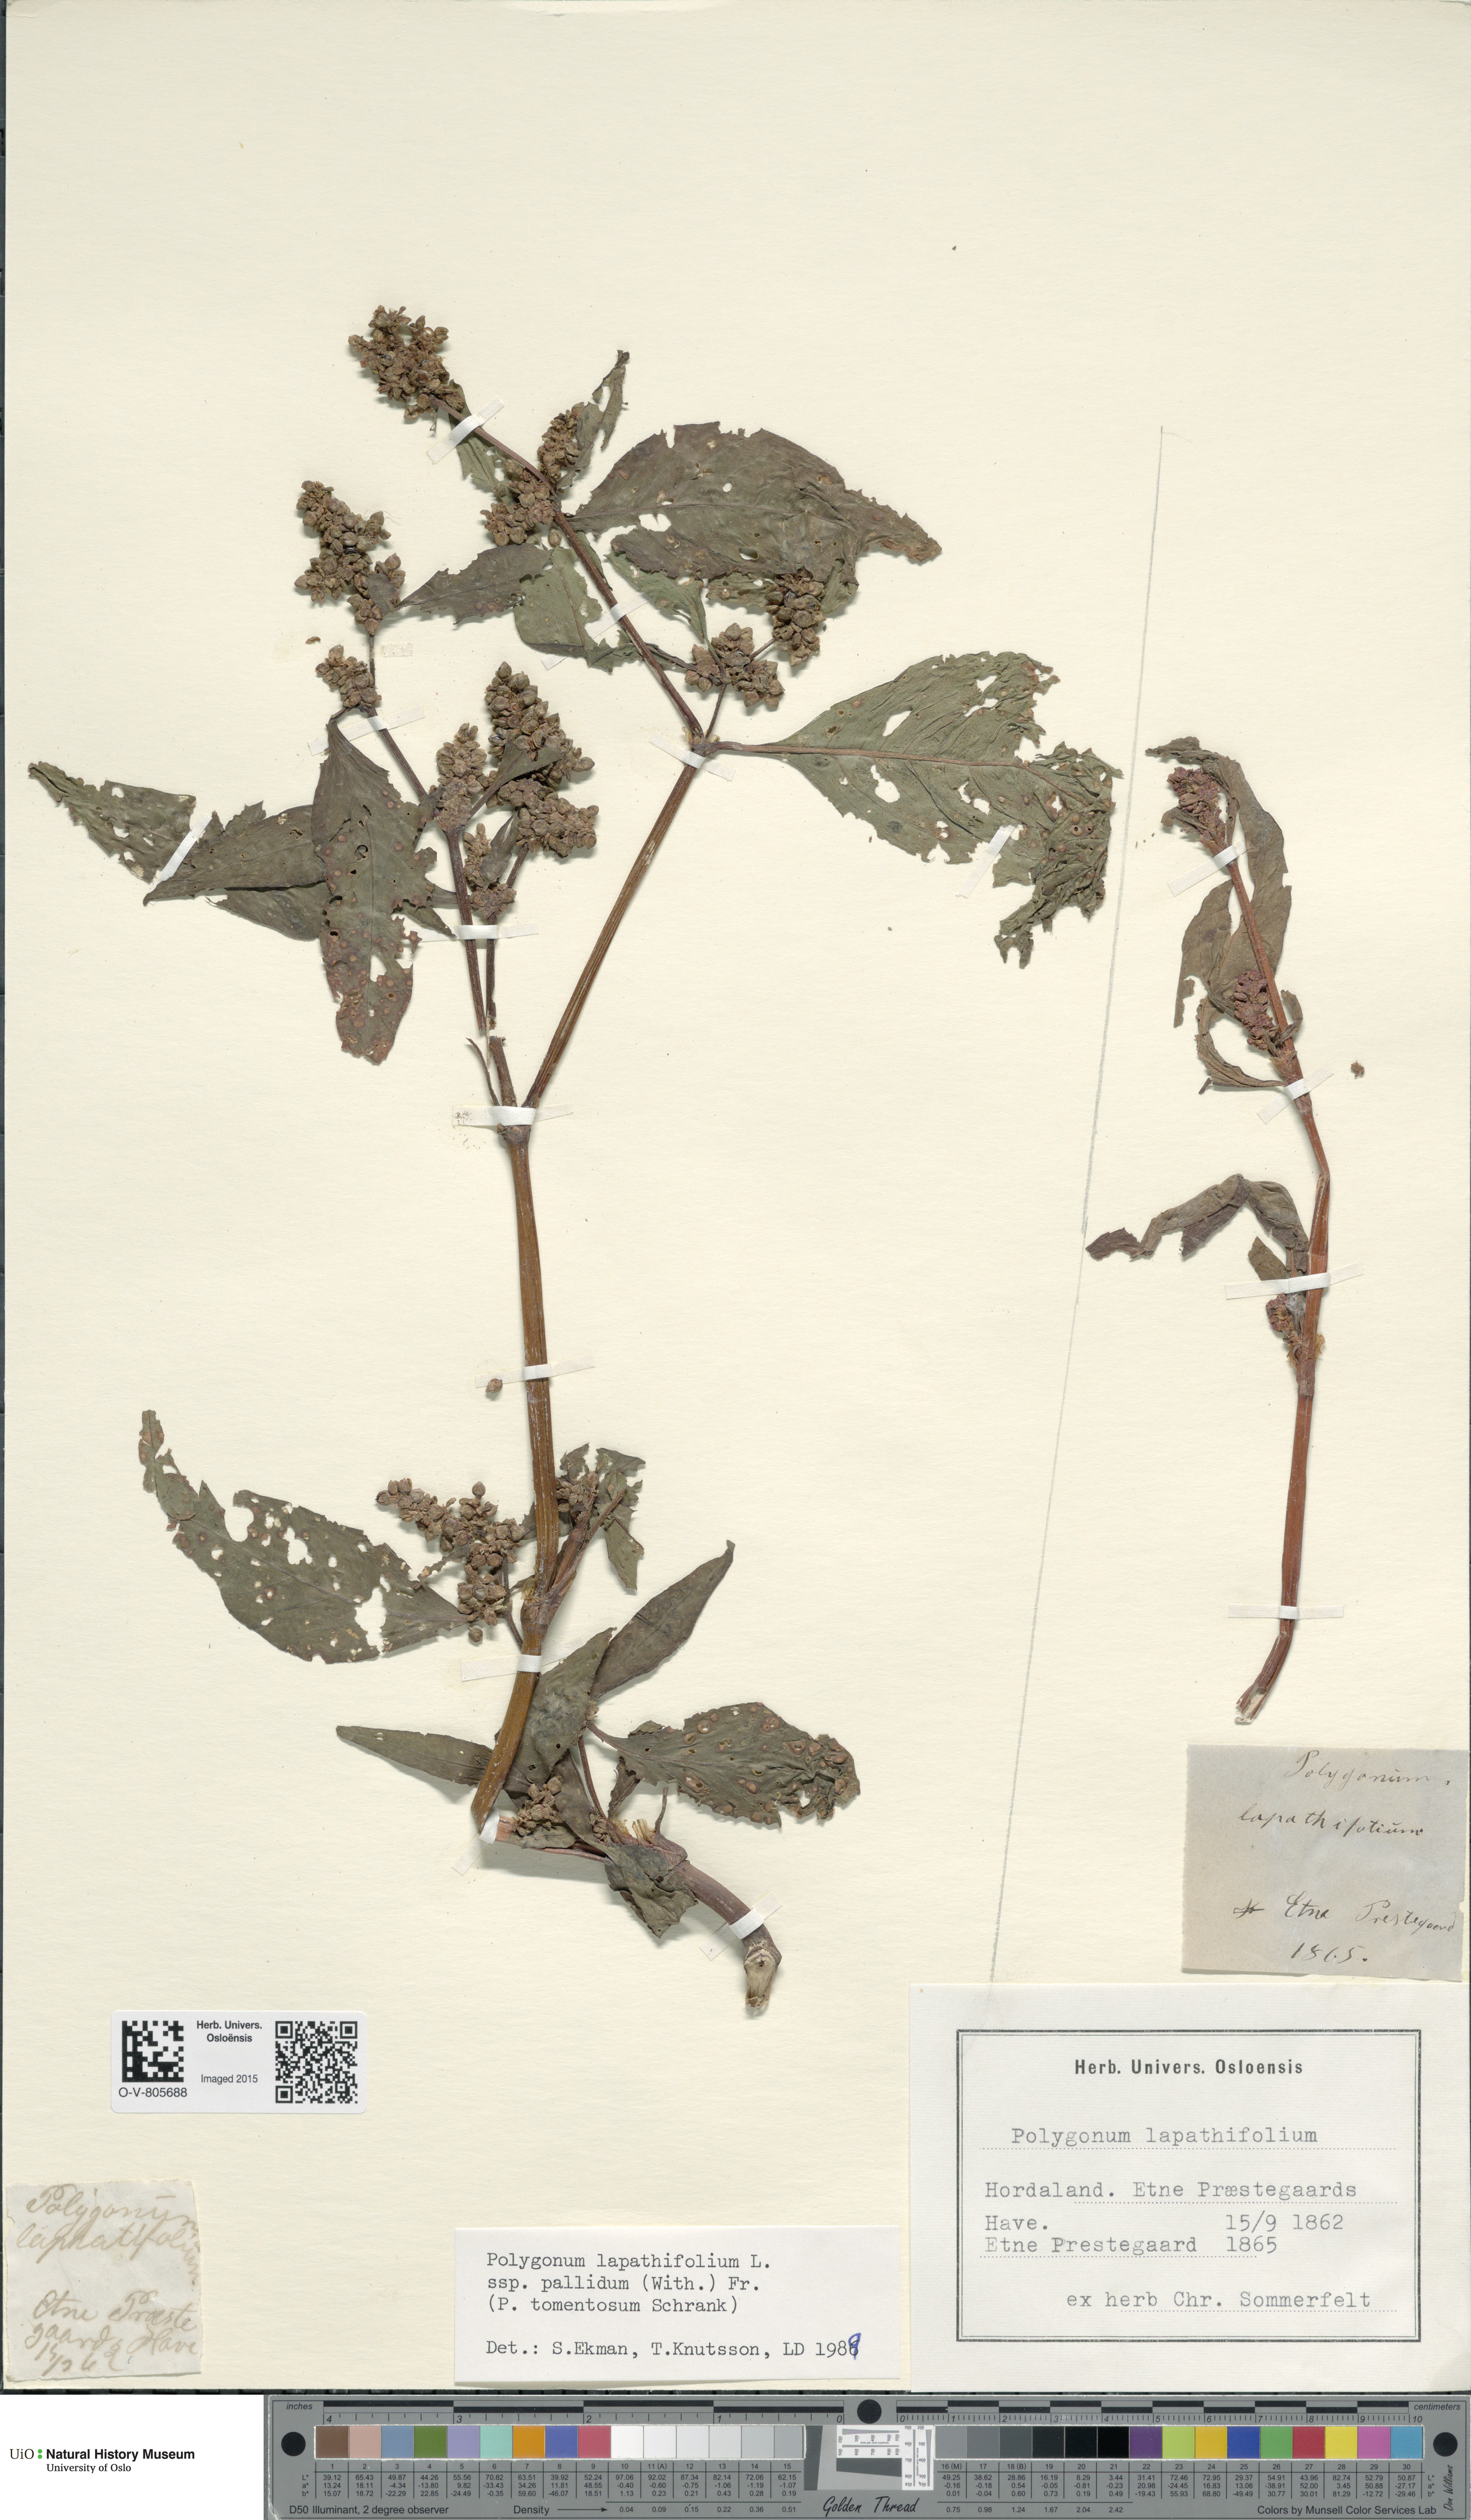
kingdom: Plantae
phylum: Tracheophyta
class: Magnoliopsida
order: Caryophyllales
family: Polygonaceae
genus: Persicaria
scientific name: Persicaria lapathifolia
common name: Curlytop knotweed
